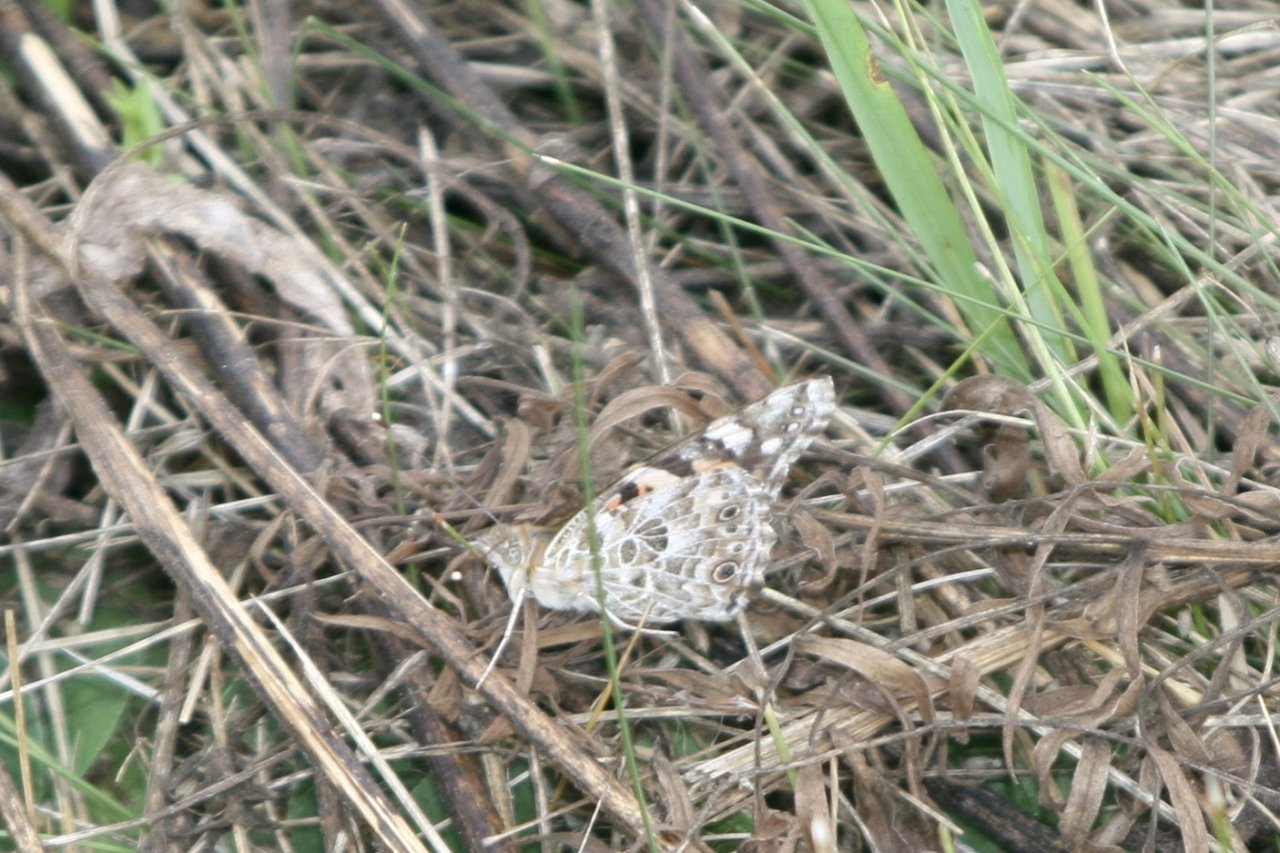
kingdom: Animalia
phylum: Arthropoda
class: Insecta
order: Lepidoptera
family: Nymphalidae
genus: Vanessa
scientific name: Vanessa cardui
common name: Painted Lady
